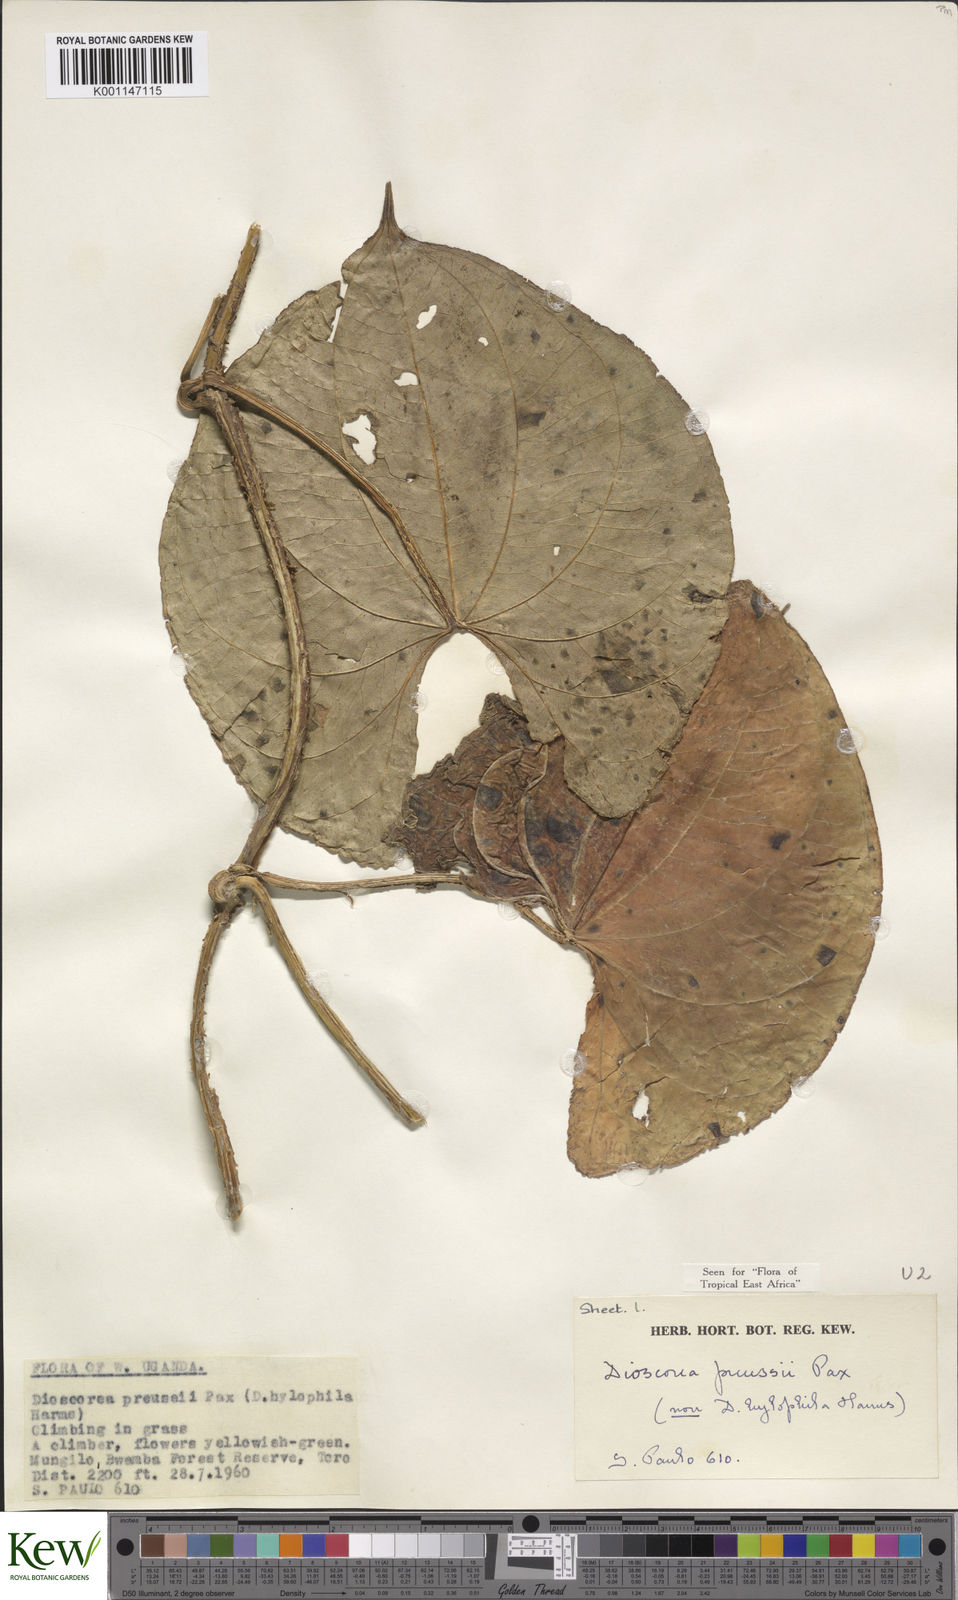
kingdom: Plantae
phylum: Tracheophyta
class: Liliopsida
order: Dioscoreales
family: Dioscoreaceae
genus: Dioscorea
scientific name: Dioscorea preussii
